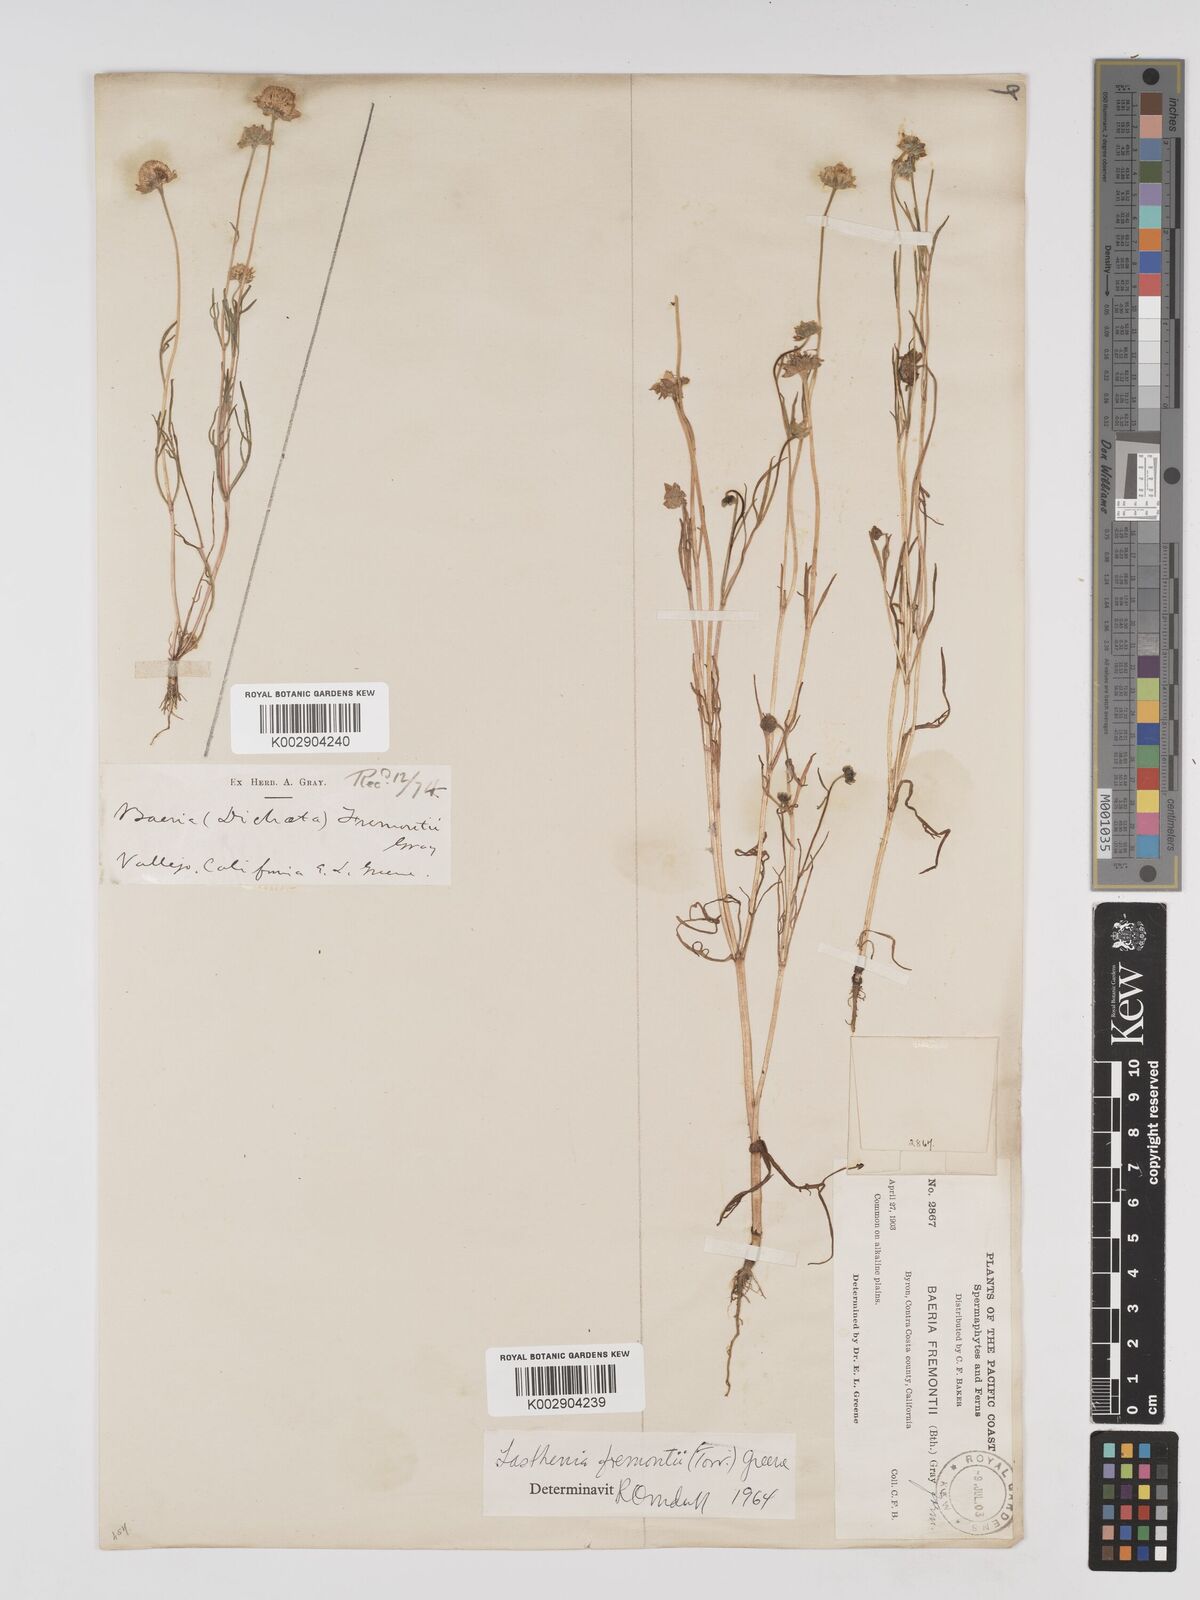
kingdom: Plantae
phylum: Tracheophyta
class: Magnoliopsida
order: Asterales
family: Asteraceae
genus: Lasthenia
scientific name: Lasthenia fremontii
